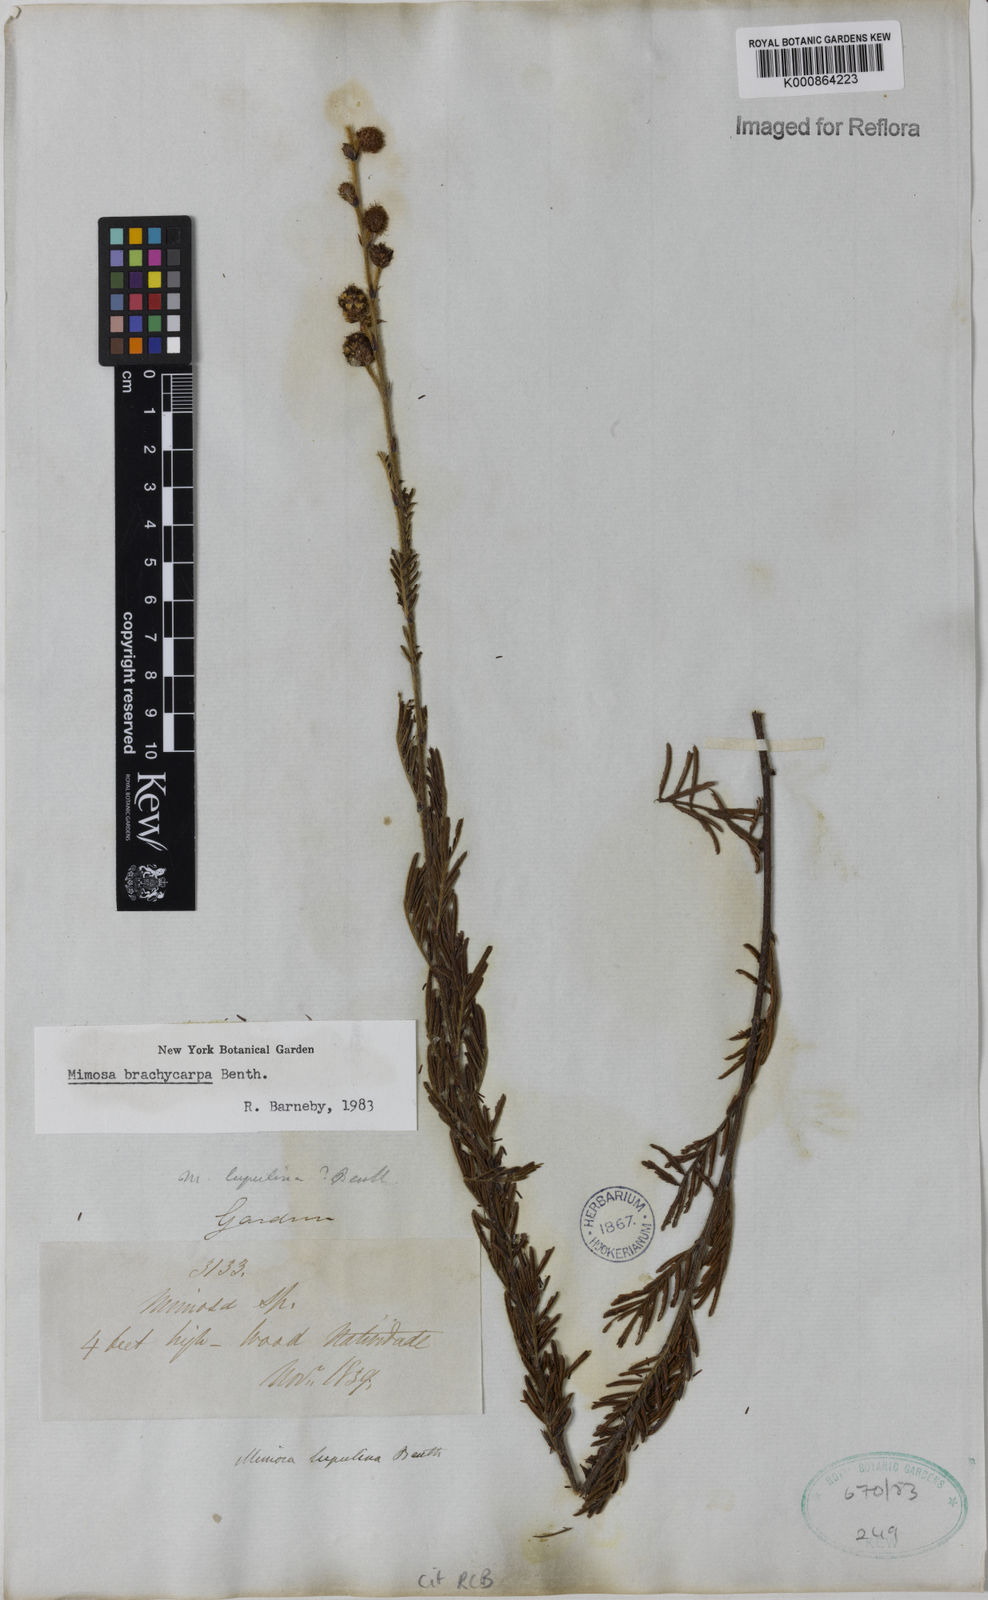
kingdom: Plantae
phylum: Tracheophyta
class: Magnoliopsida
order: Fabales
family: Fabaceae
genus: Mimosa
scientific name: Mimosa brachycarpa
